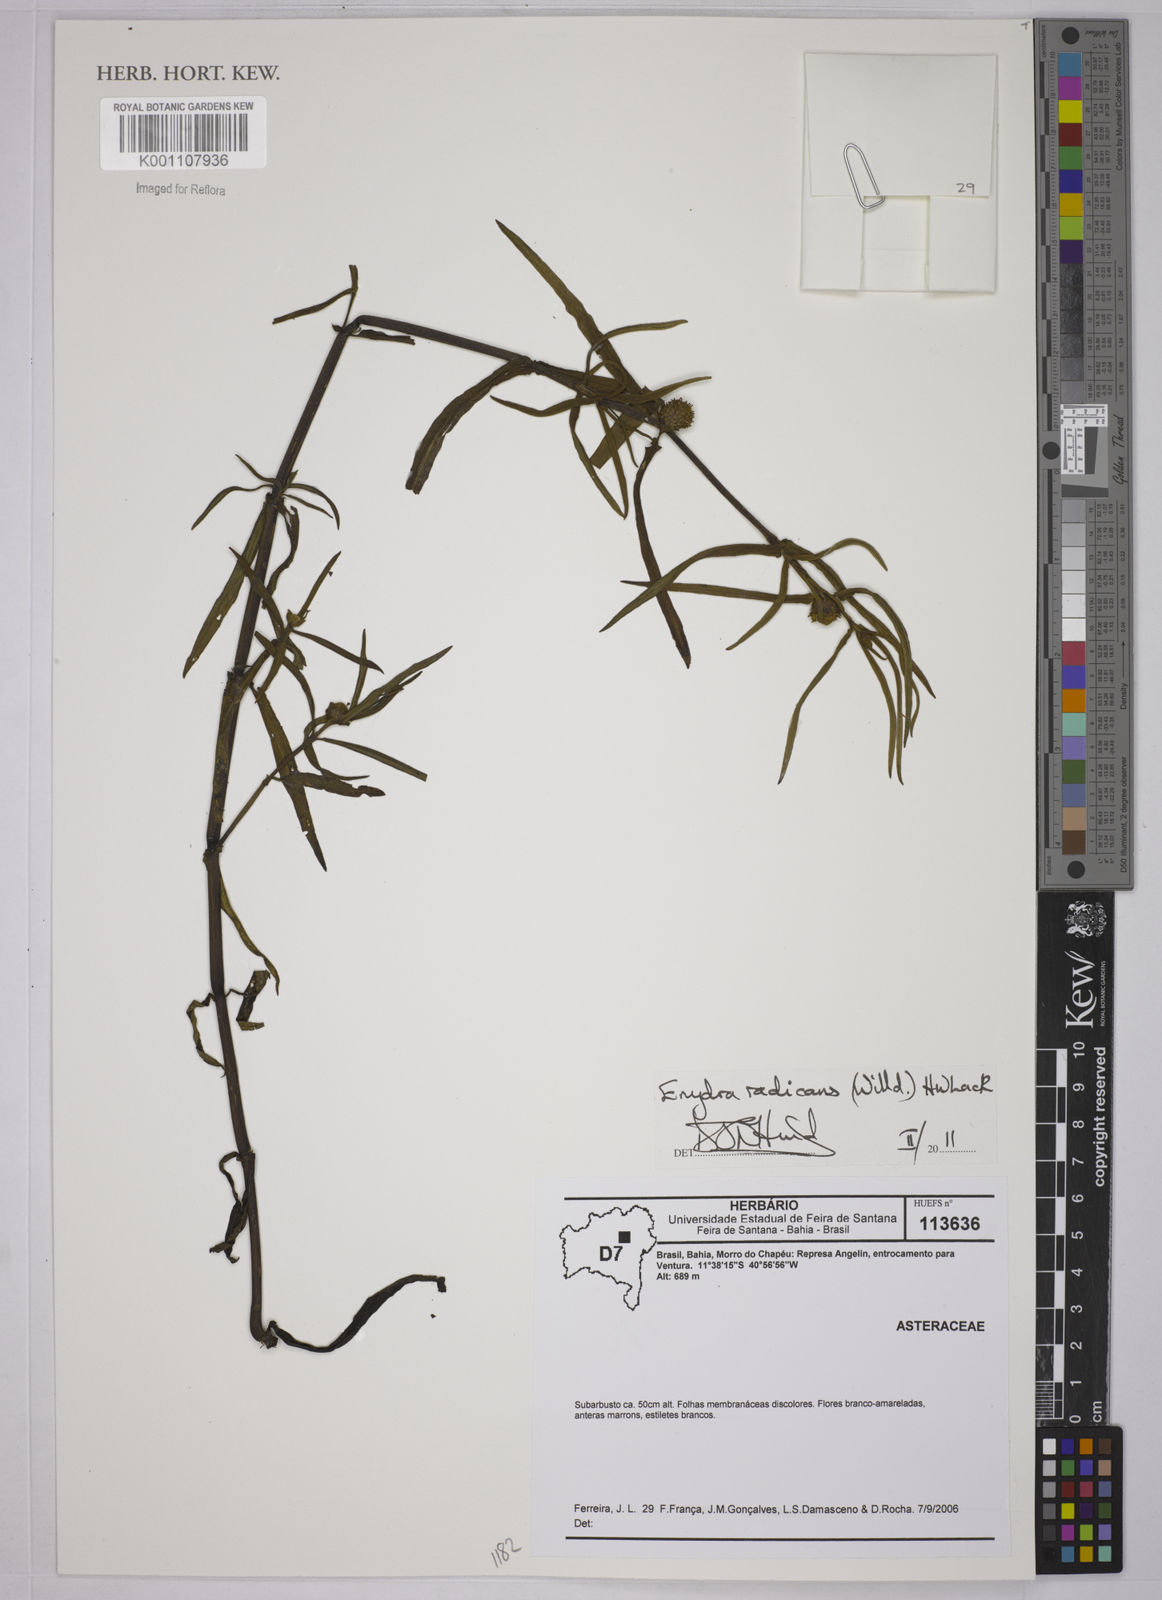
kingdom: Plantae
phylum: Tracheophyta
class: Magnoliopsida
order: Asterales
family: Asteraceae
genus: Enydra
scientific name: Enydra radicans
